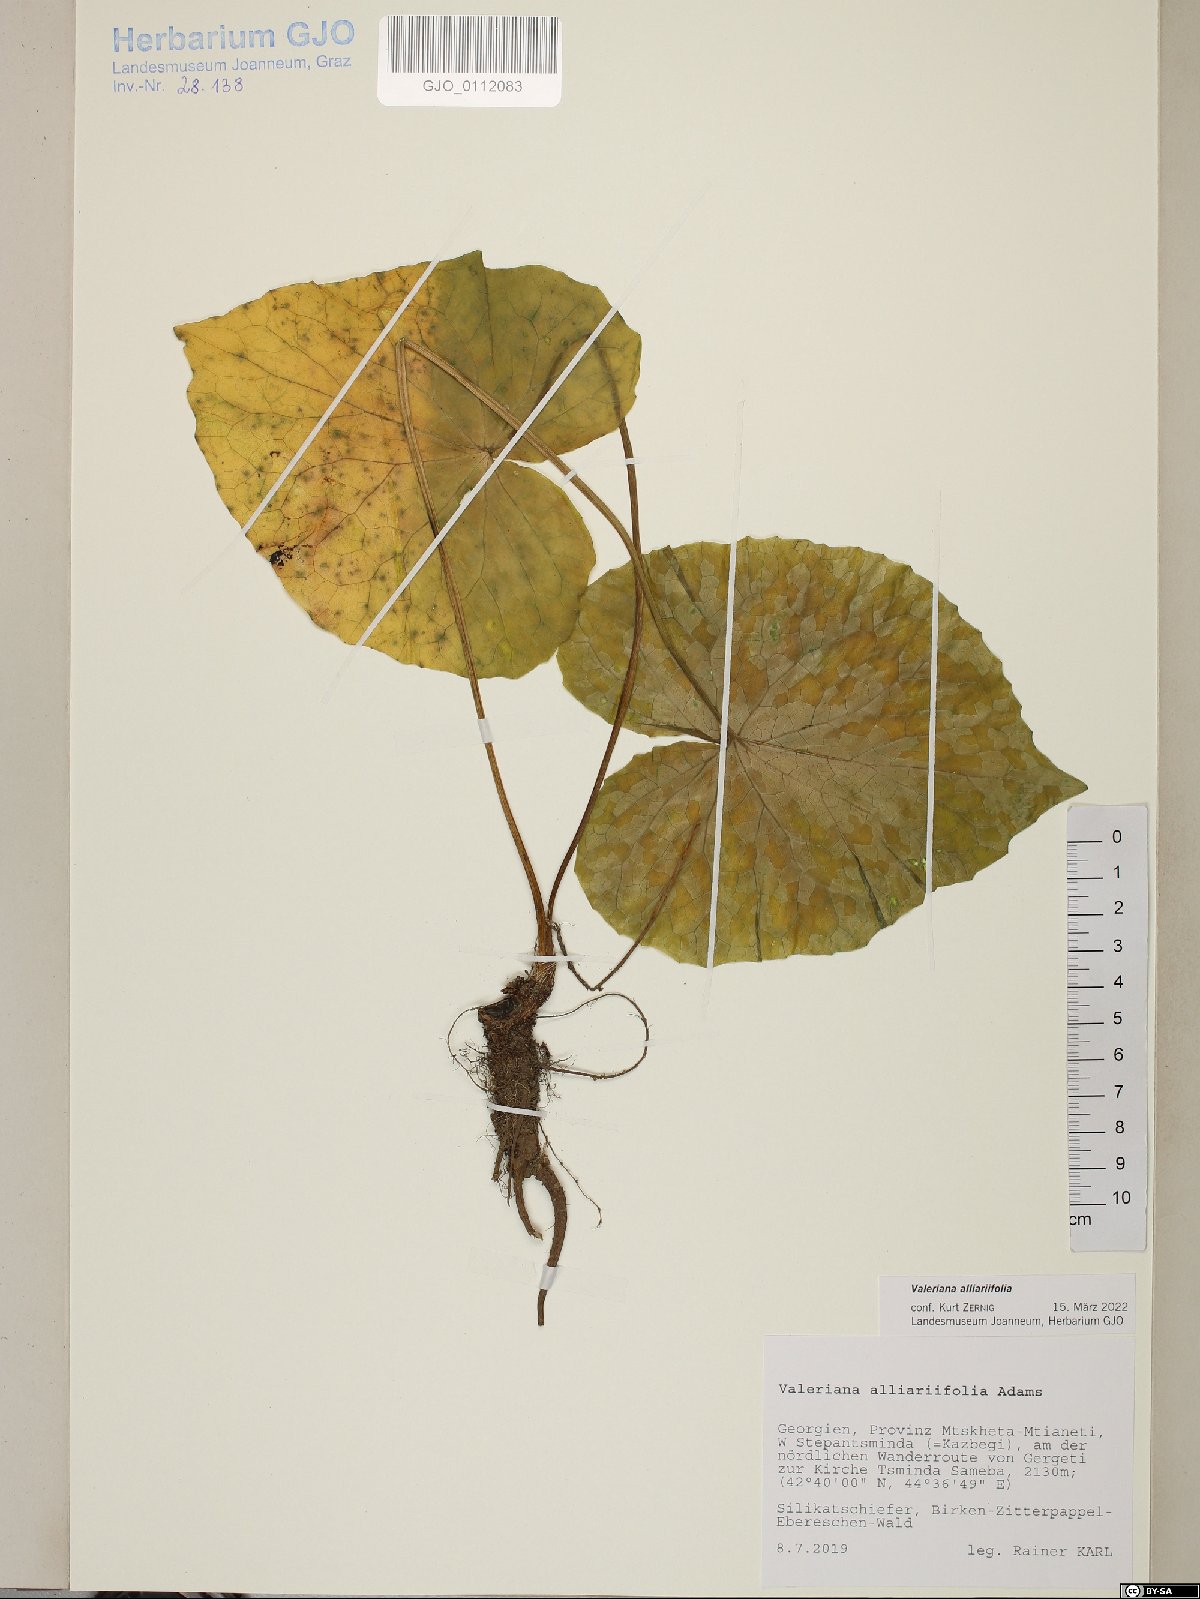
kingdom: Plantae
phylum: Tracheophyta
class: Magnoliopsida
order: Dipsacales
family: Caprifoliaceae
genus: Valeriana
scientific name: Valeriana alliariifolia
